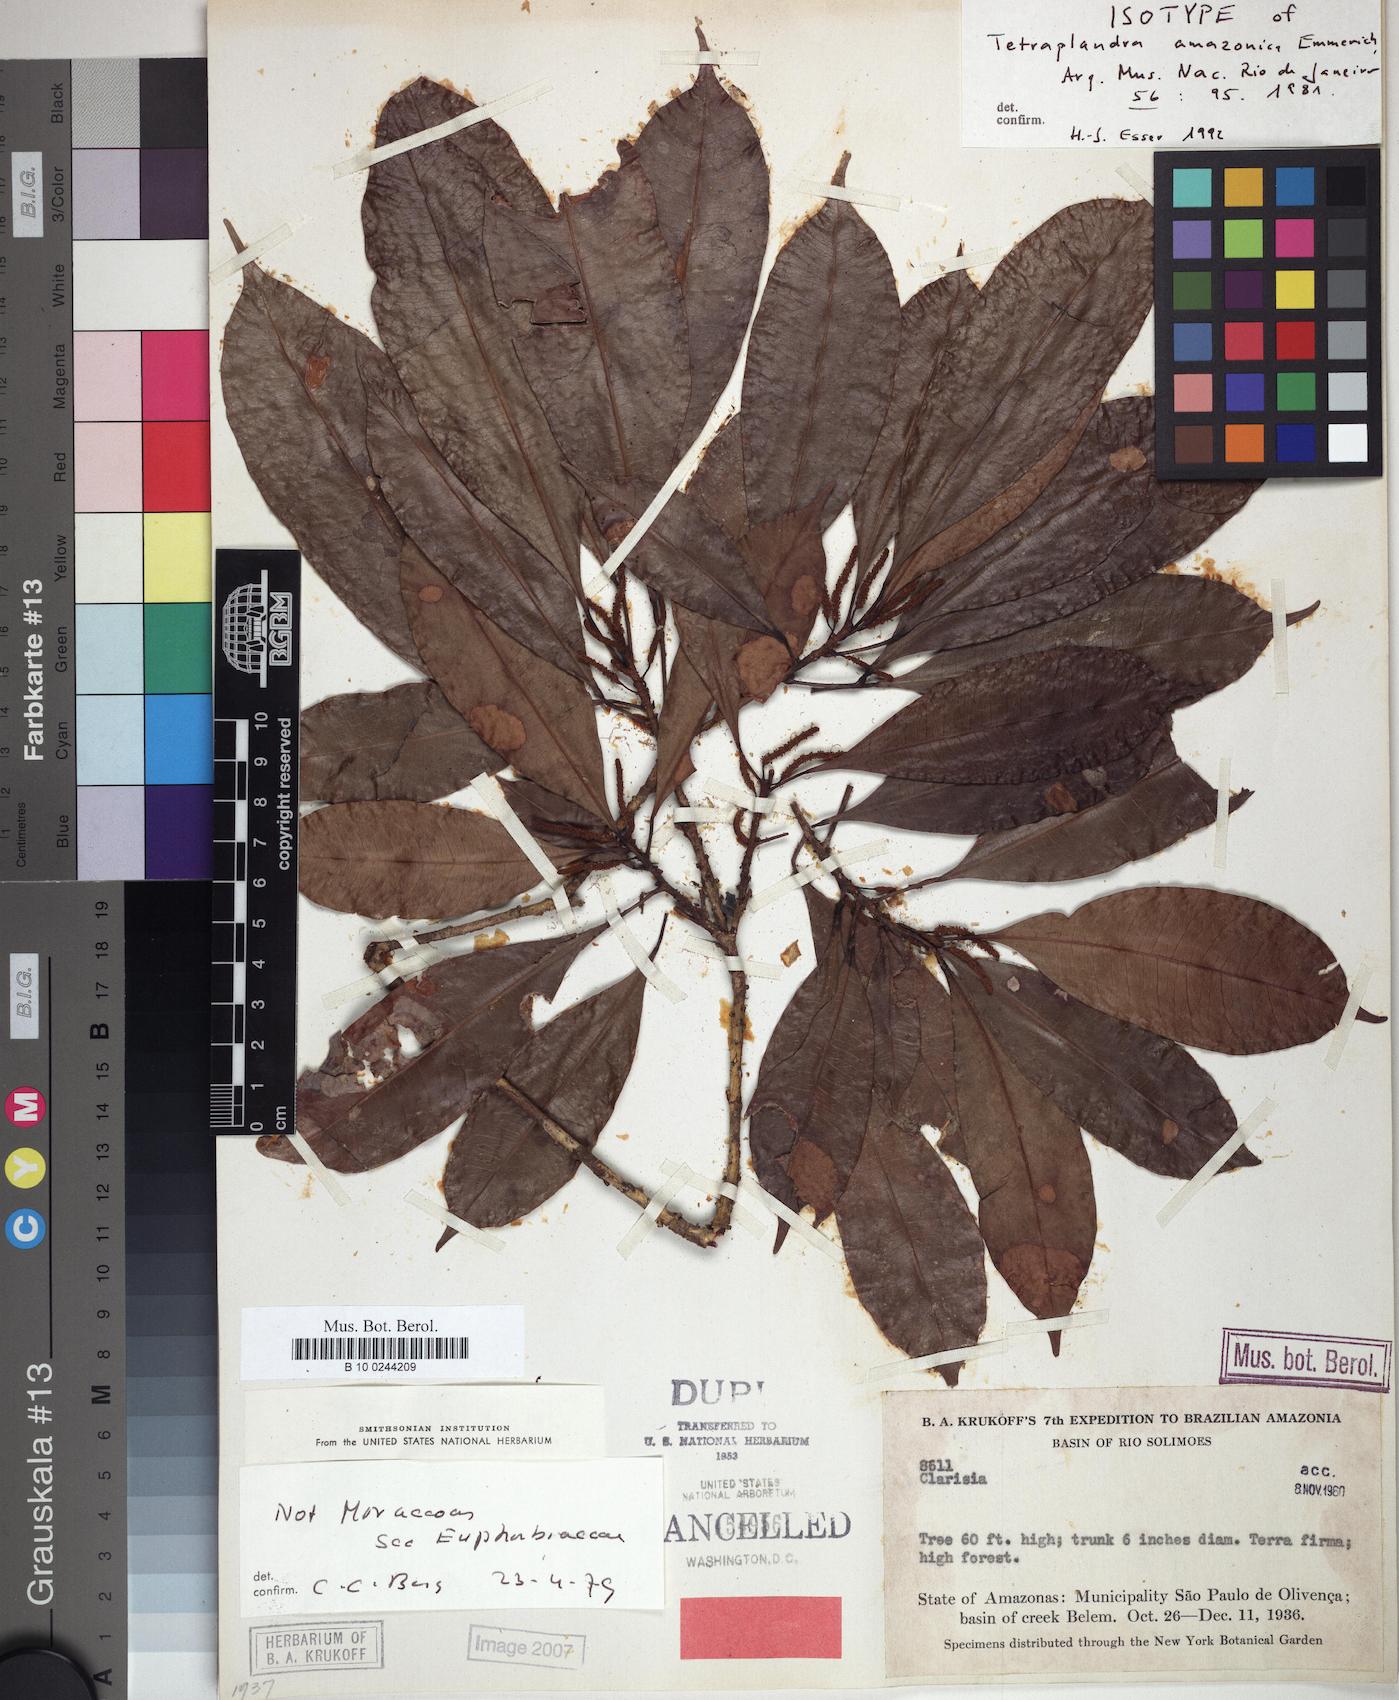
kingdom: Plantae
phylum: Tracheophyta
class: Magnoliopsida
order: Malpighiales
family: Euphorbiaceae
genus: Algernonia
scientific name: Algernonia amazonica
